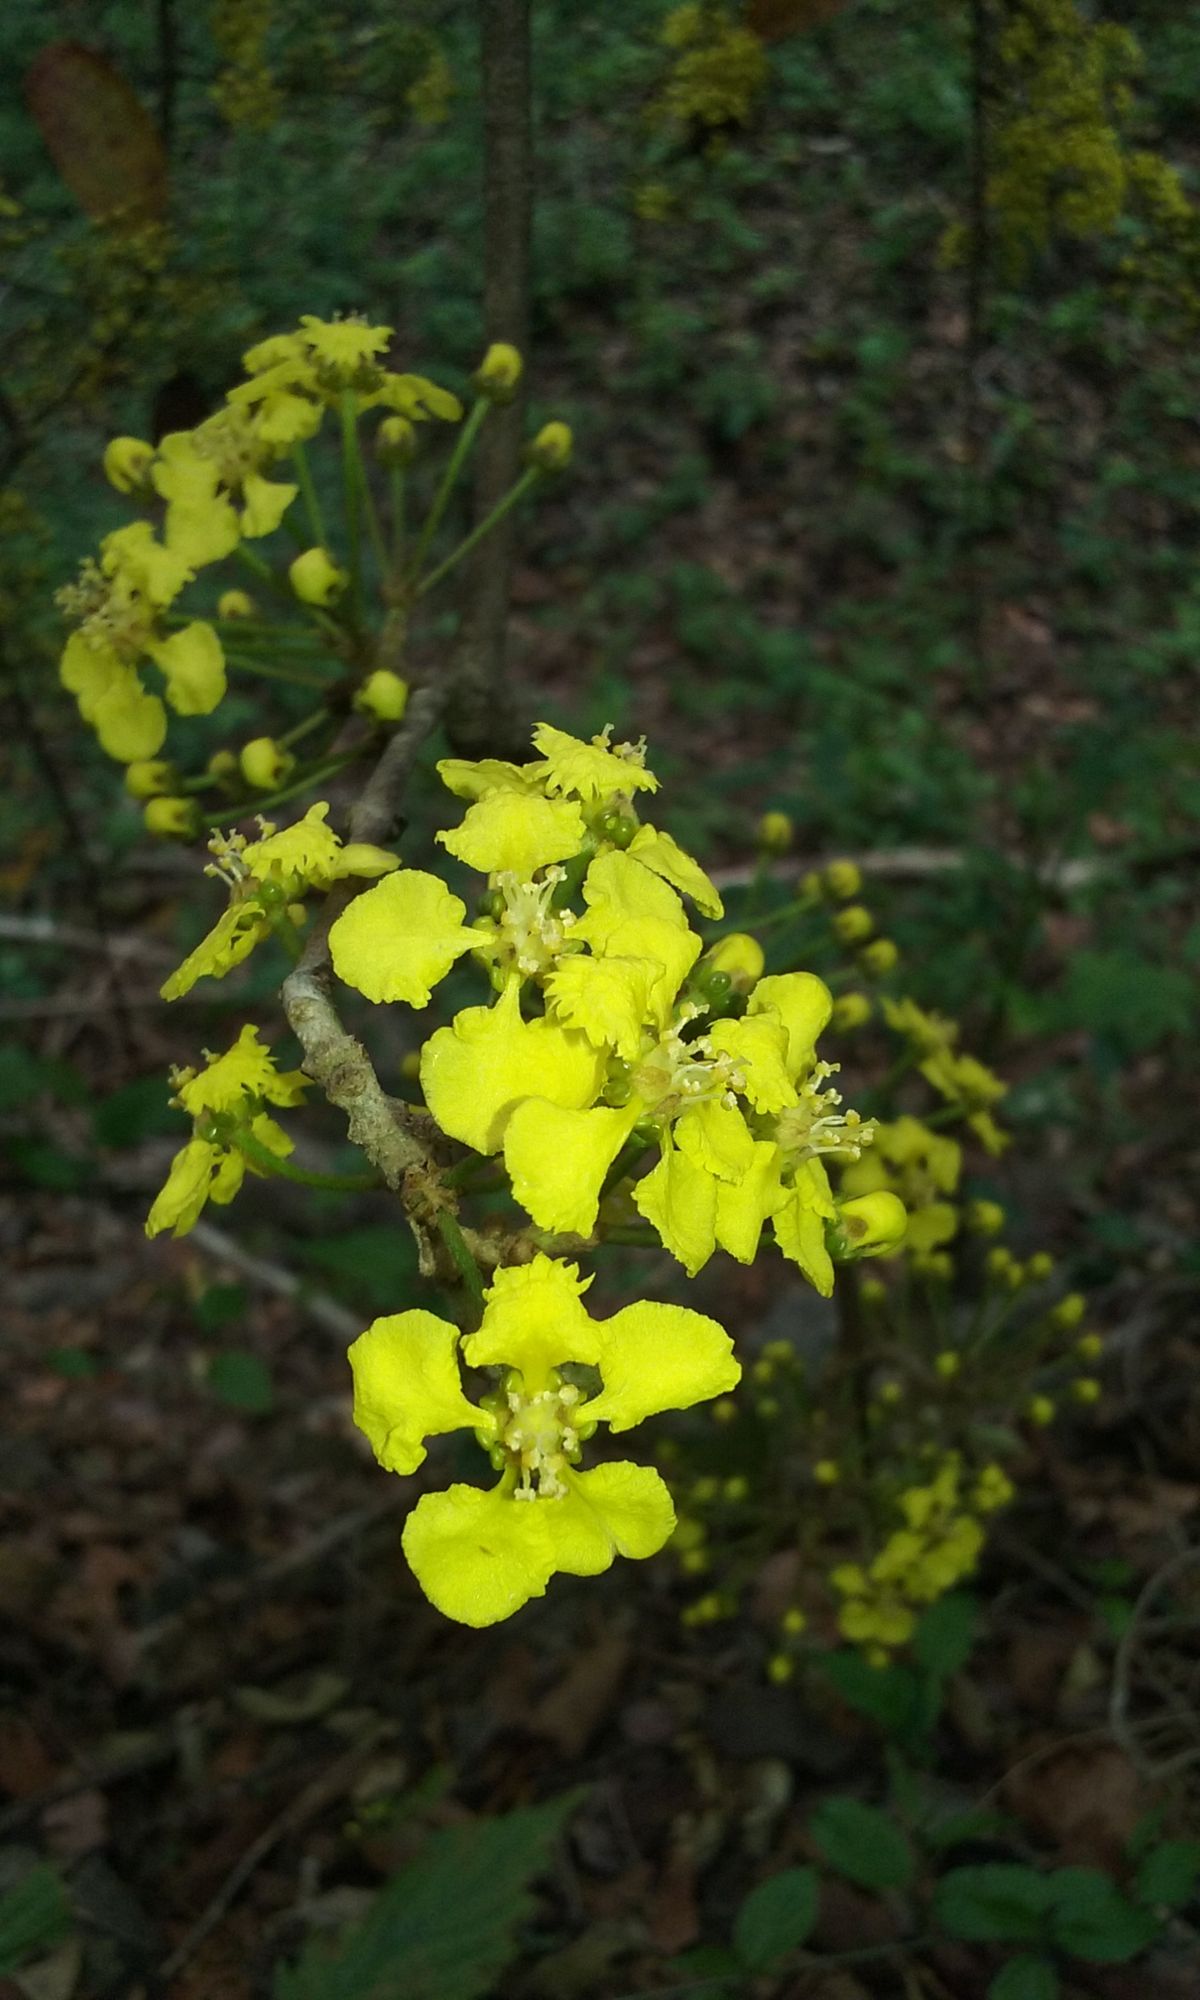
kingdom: Plantae
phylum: Tracheophyta
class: Magnoliopsida
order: Malpighiales
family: Malpighiaceae
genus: Hiraea
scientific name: Hiraea barclayana
